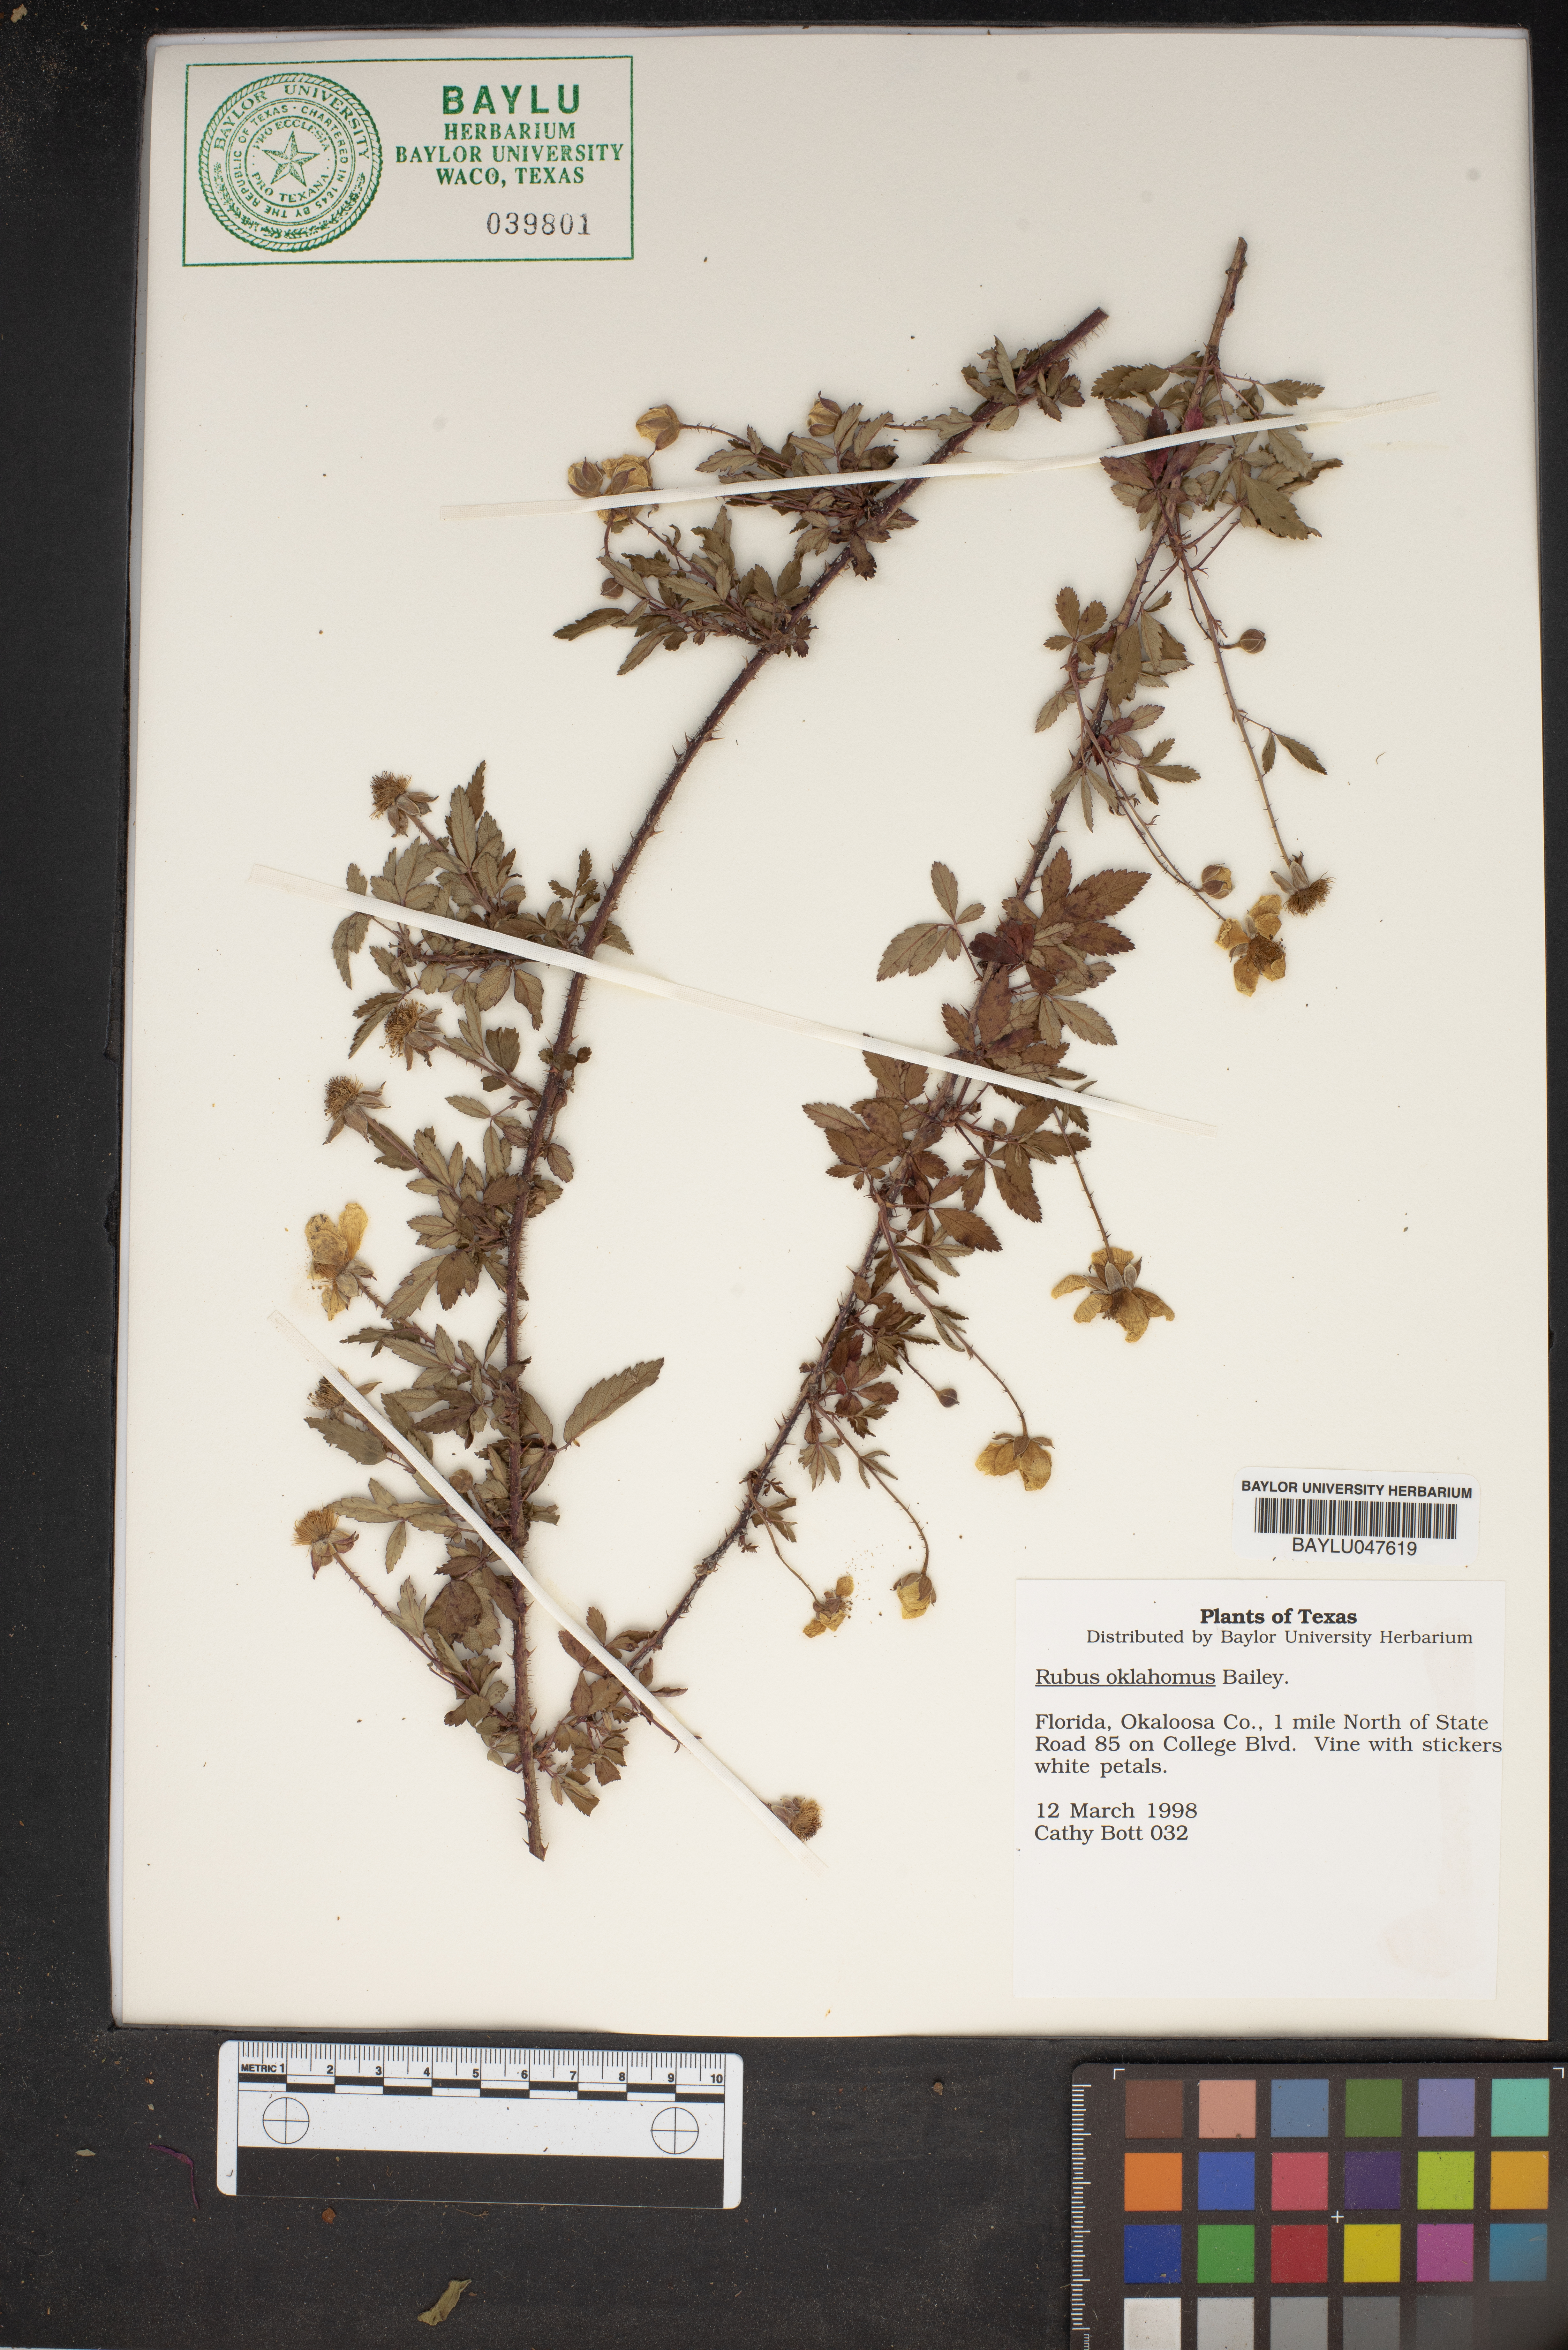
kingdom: Plantae
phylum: Tracheophyta
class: Magnoliopsida
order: Rosales
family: Rosaceae
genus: Rubus
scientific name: Rubus oklahomus
